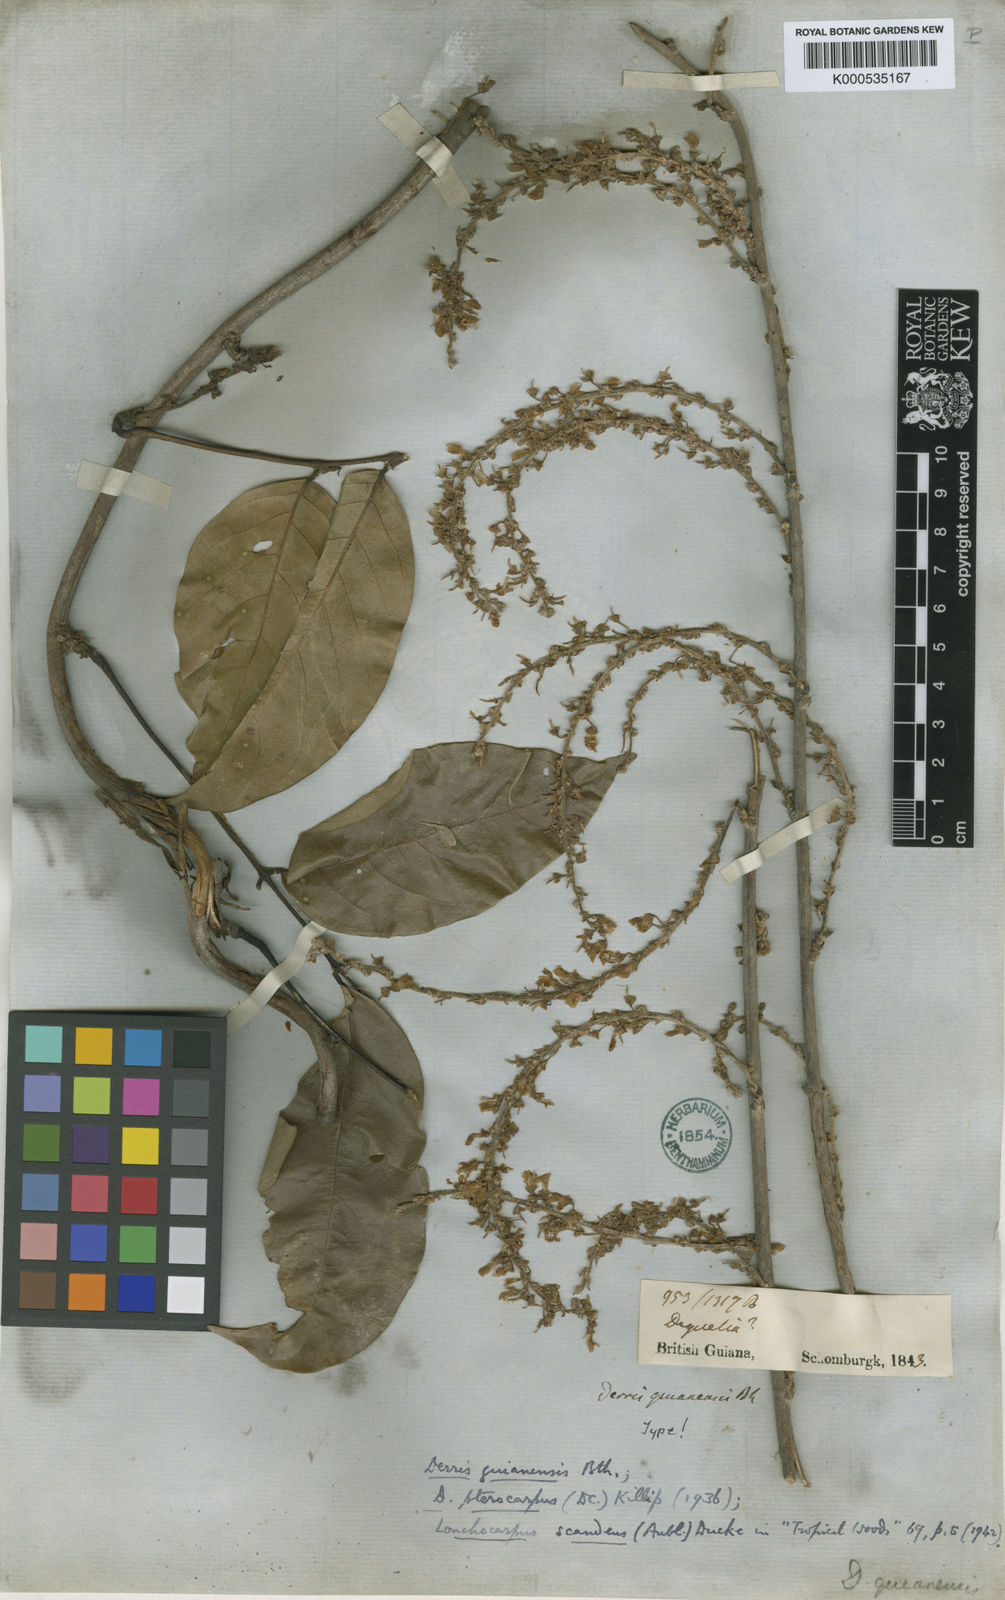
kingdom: Plantae
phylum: Tracheophyta
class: Magnoliopsida
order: Fabales
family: Fabaceae
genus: Deguelia
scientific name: Deguelia scandens
